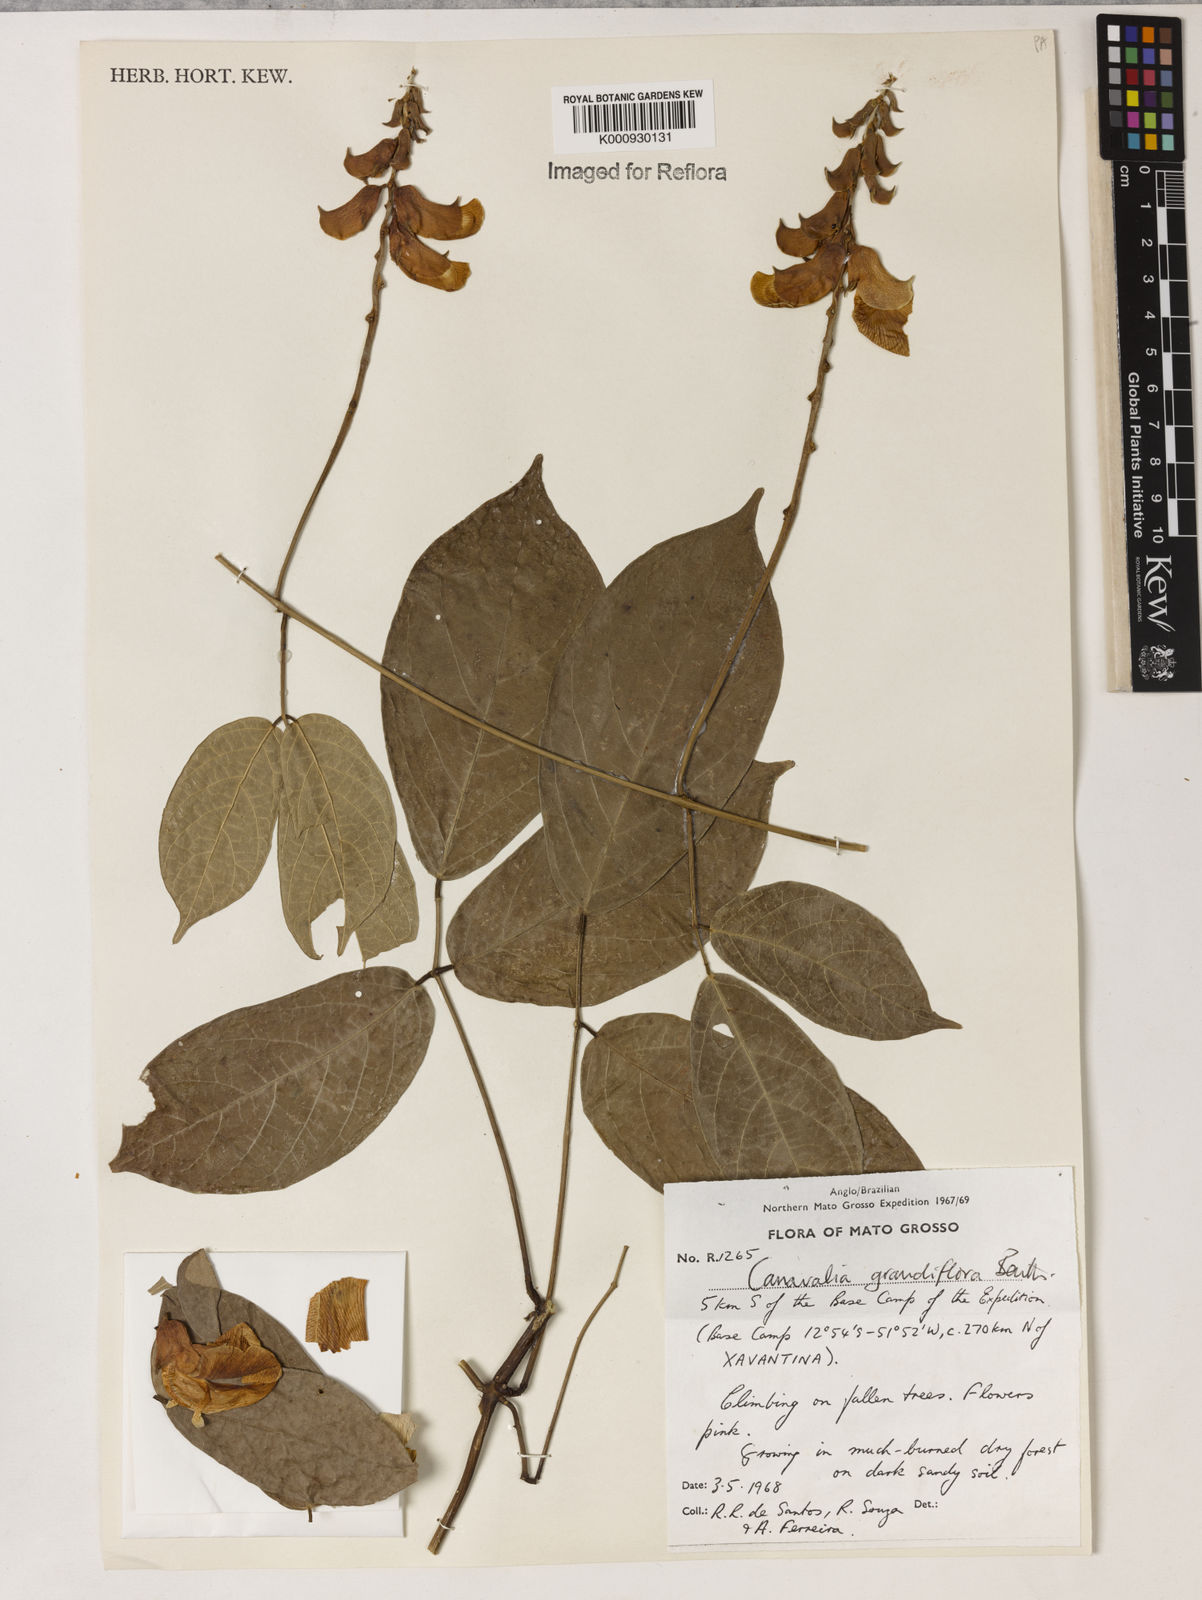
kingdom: Plantae
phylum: Tracheophyta
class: Magnoliopsida
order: Fabales
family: Fabaceae
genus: Canavalia
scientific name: Canavalia grandiflora
